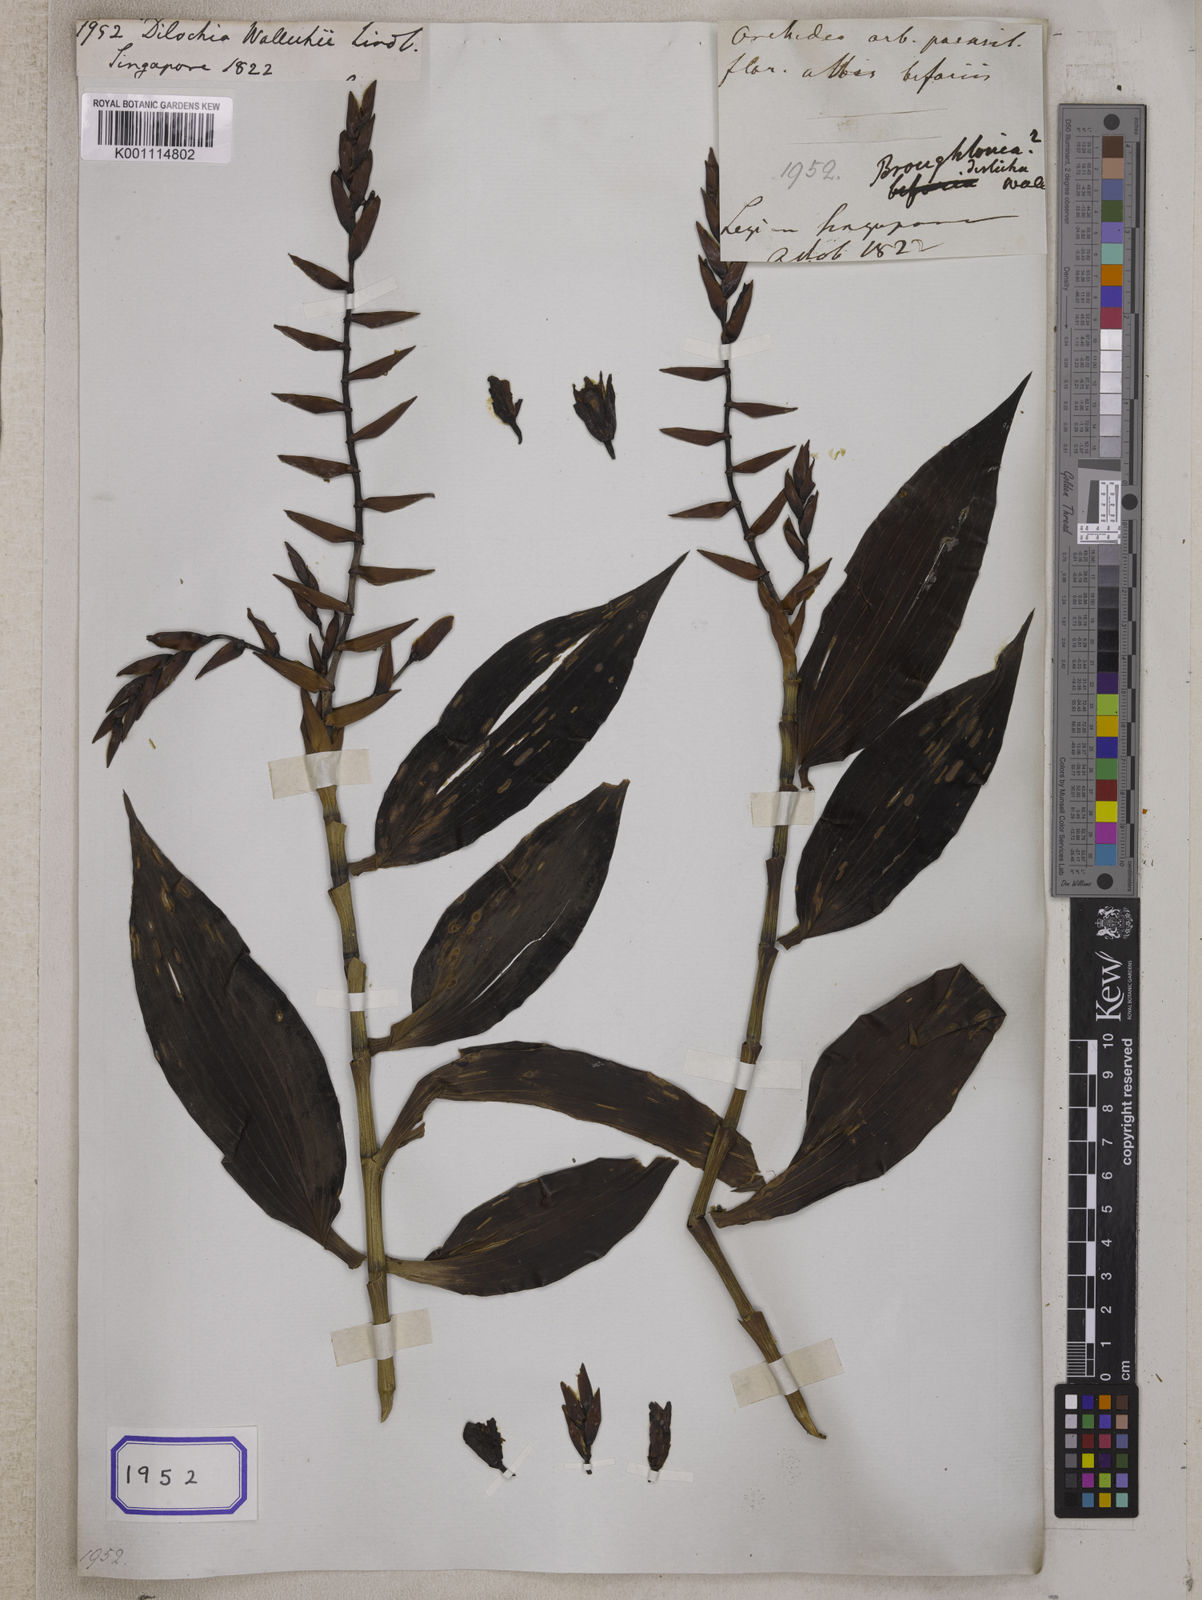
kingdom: Plantae
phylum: Tracheophyta
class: Liliopsida
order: Asparagales
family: Orchidaceae
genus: Dilochia
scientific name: Dilochia wallichii
